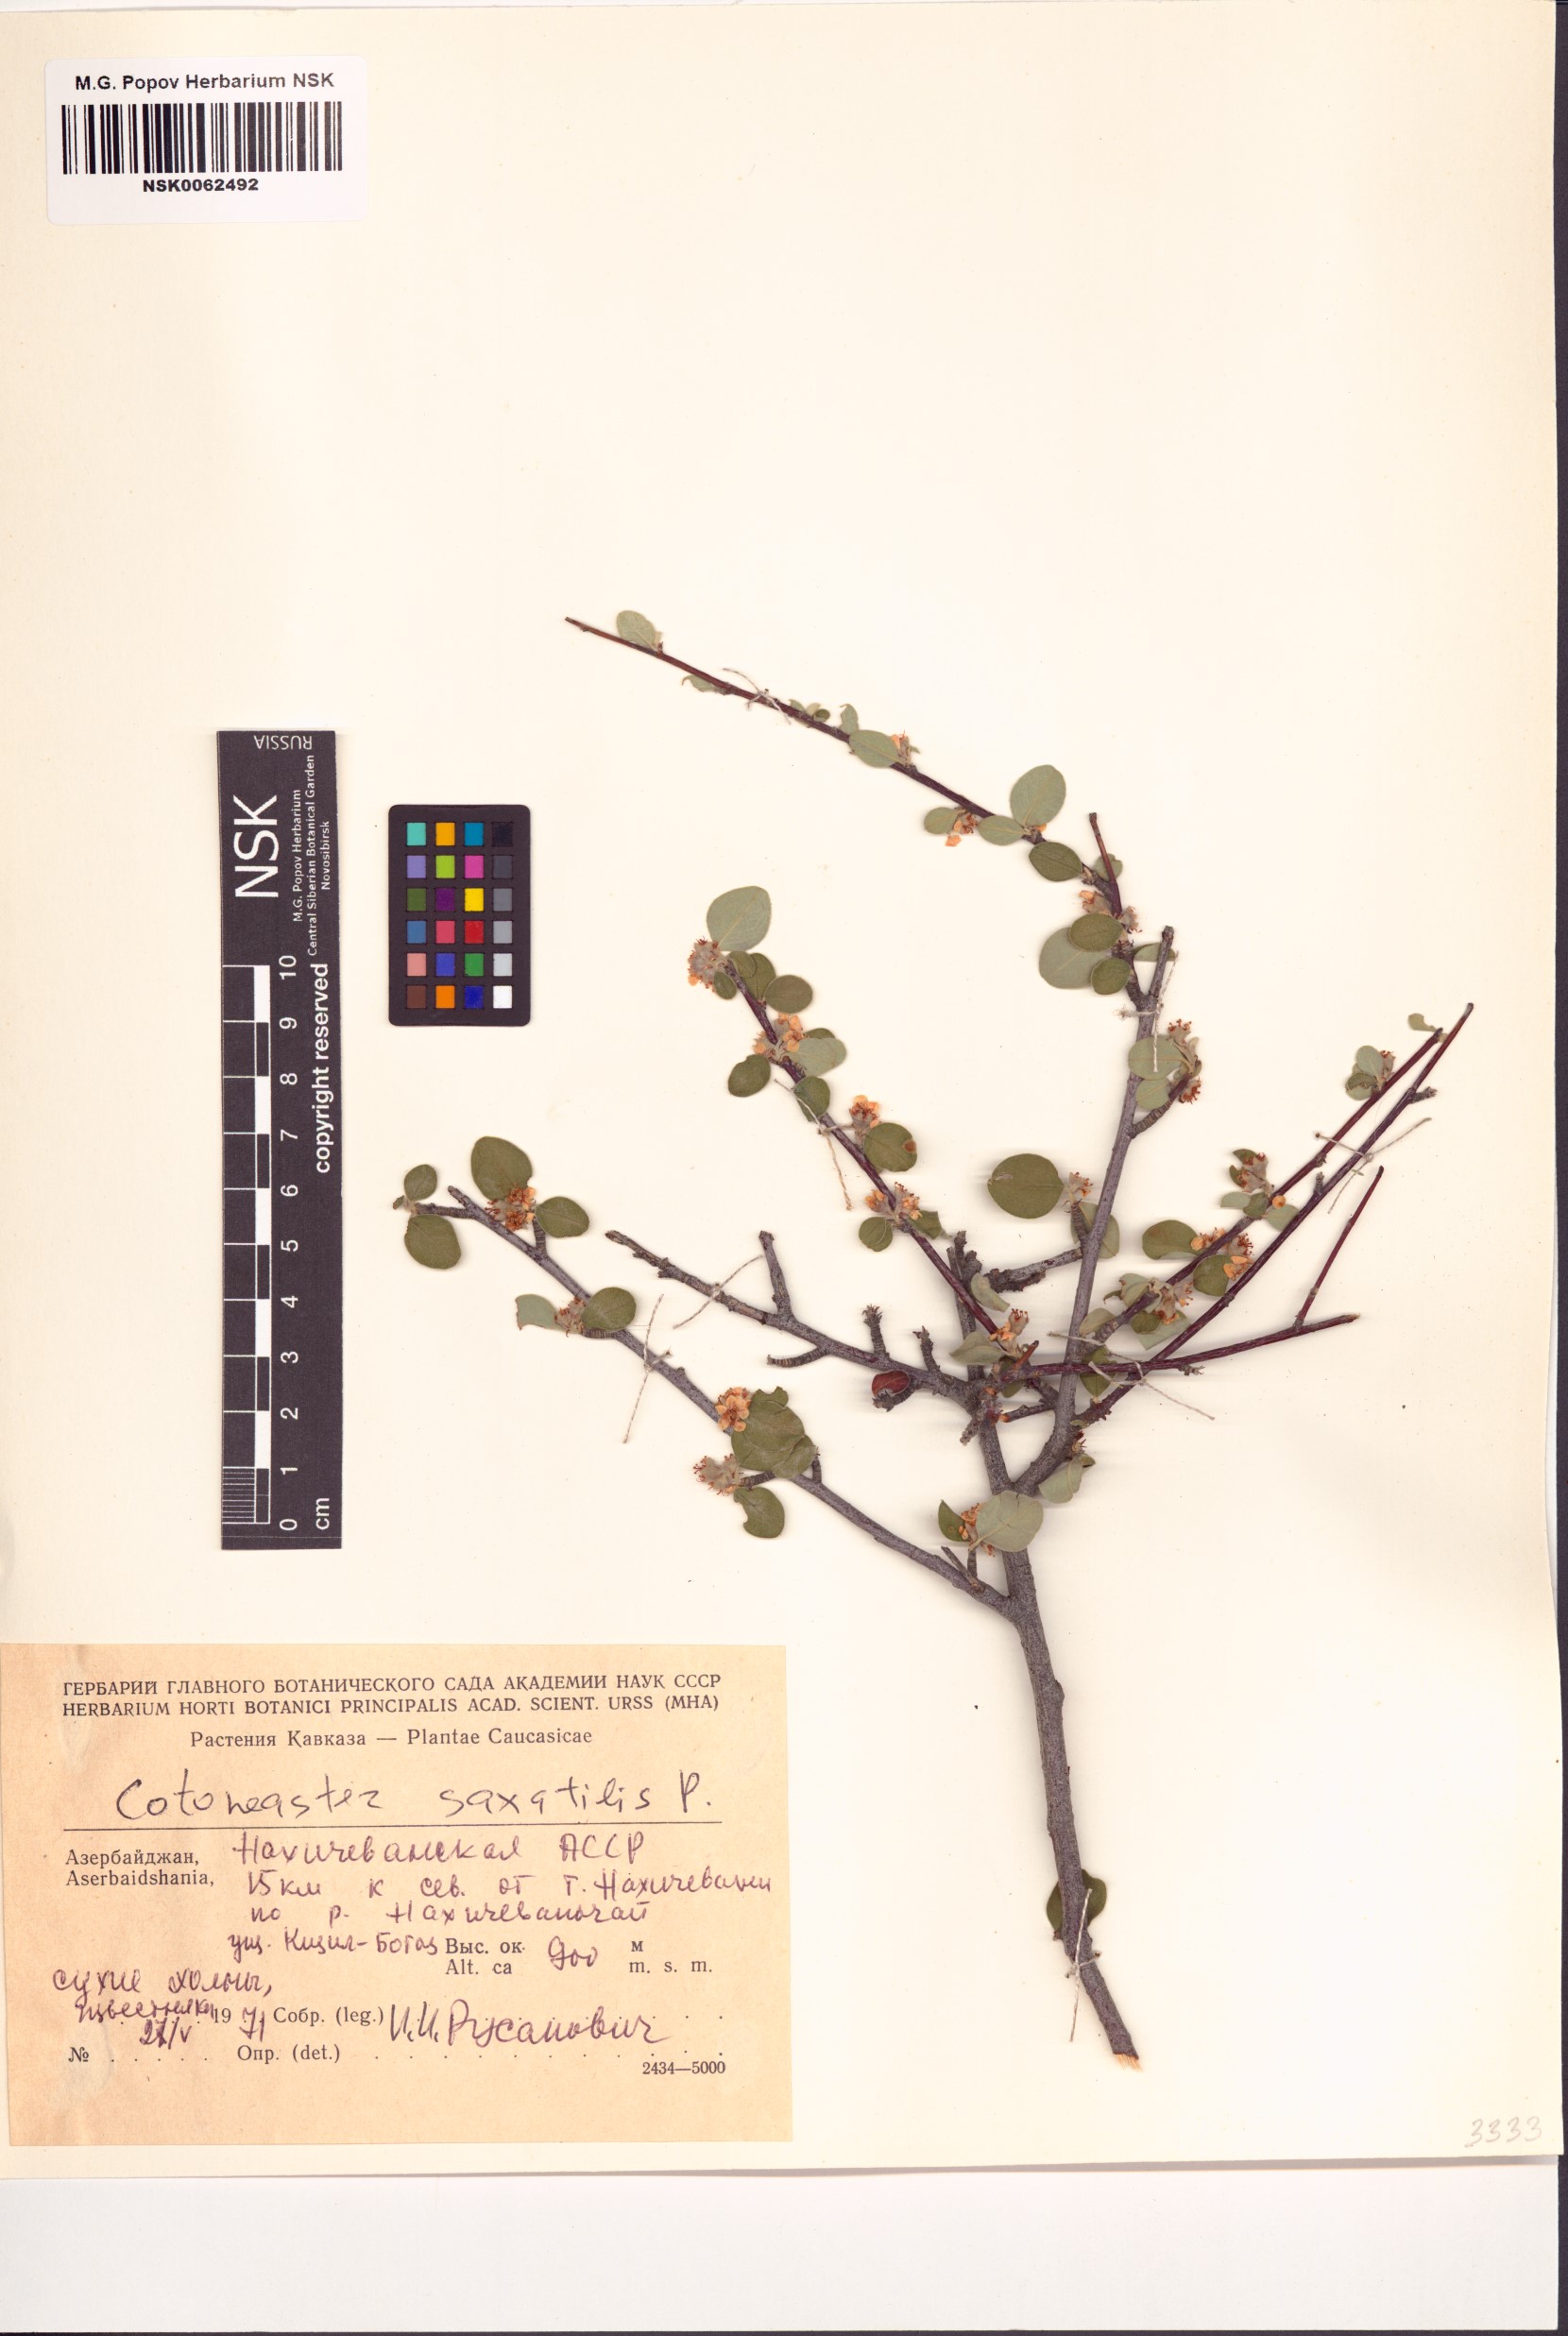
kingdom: Plantae
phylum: Tracheophyta
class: Magnoliopsida
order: Rosales
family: Rosaceae
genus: Cotoneaster
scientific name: Cotoneaster saxatilis
